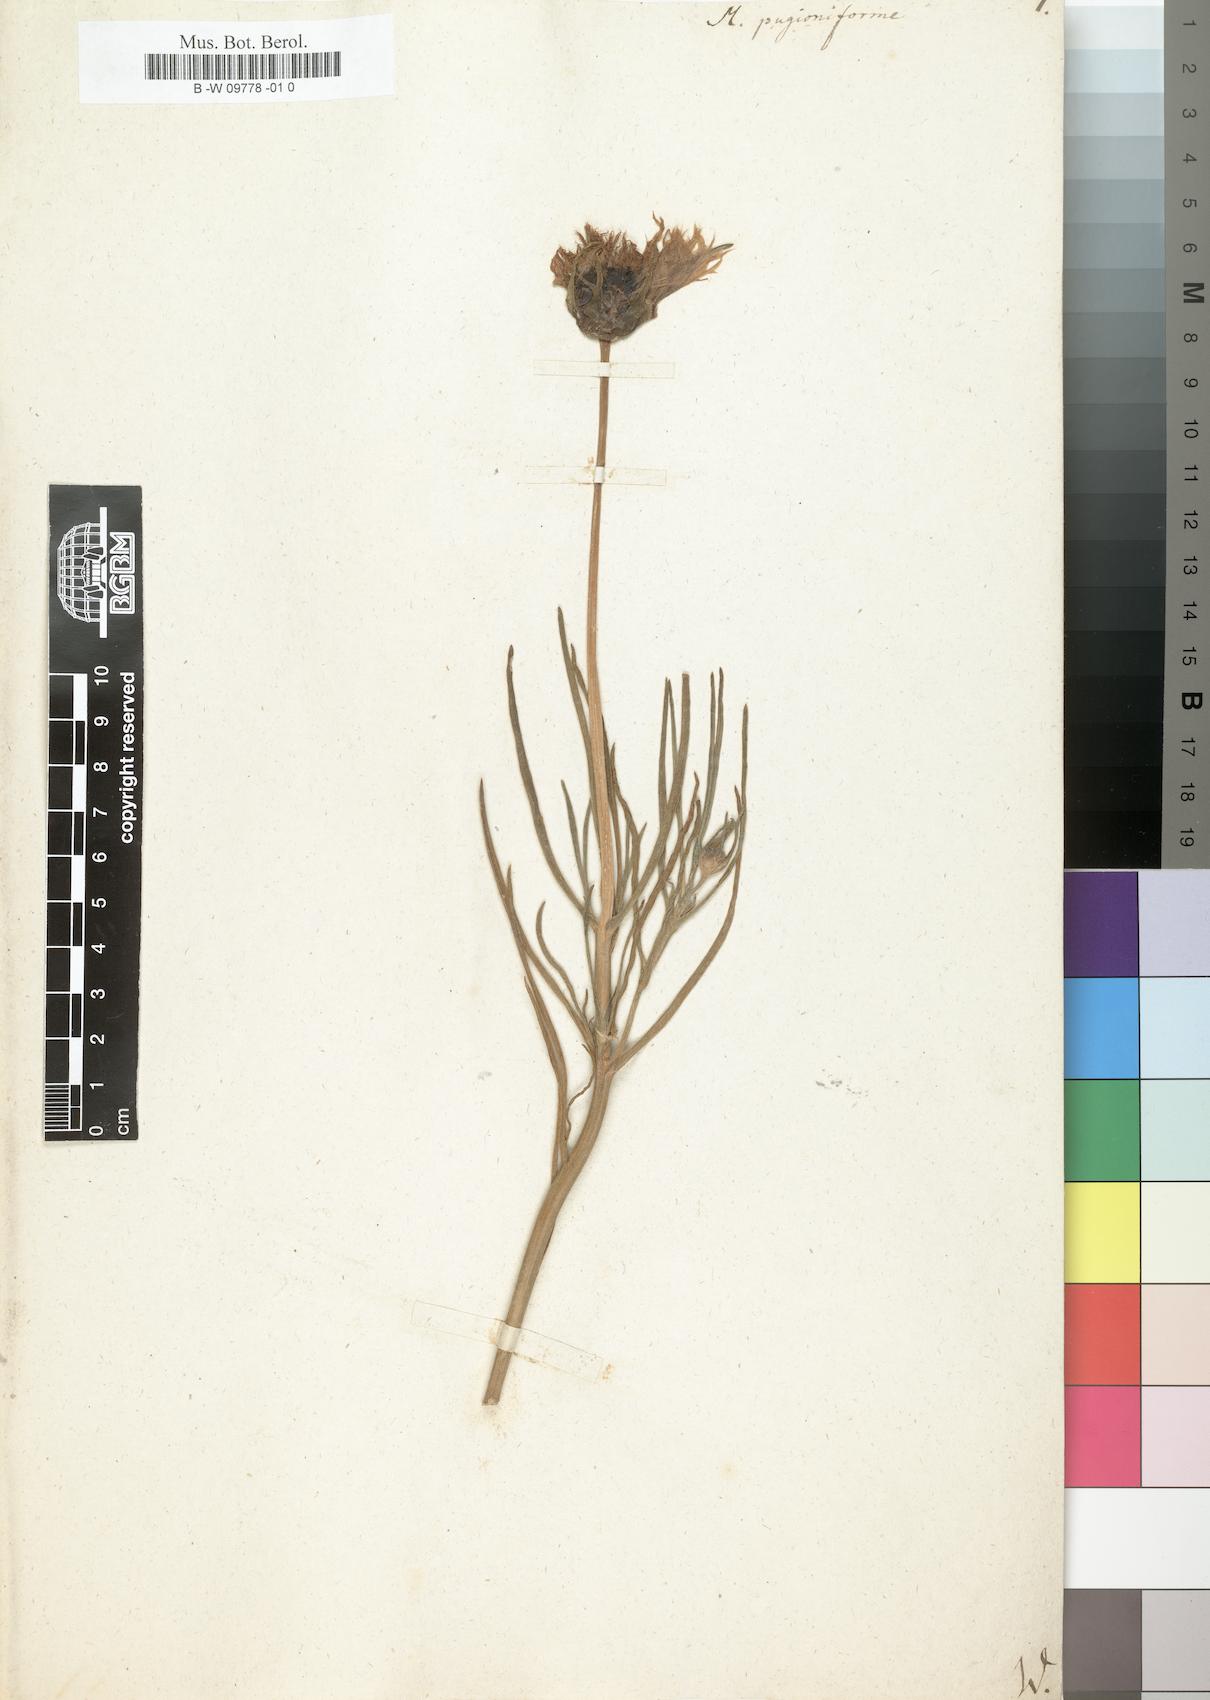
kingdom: Plantae
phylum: Tracheophyta
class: Magnoliopsida
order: Caryophyllales
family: Aizoaceae
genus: Mesembryanthemum
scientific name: Mesembryanthemum pugioniforme
